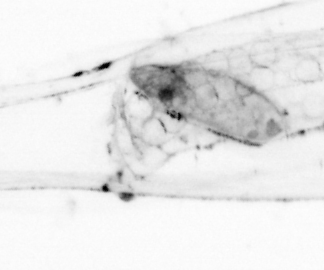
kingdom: Animalia
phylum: Chaetognatha
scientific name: Chaetognatha
